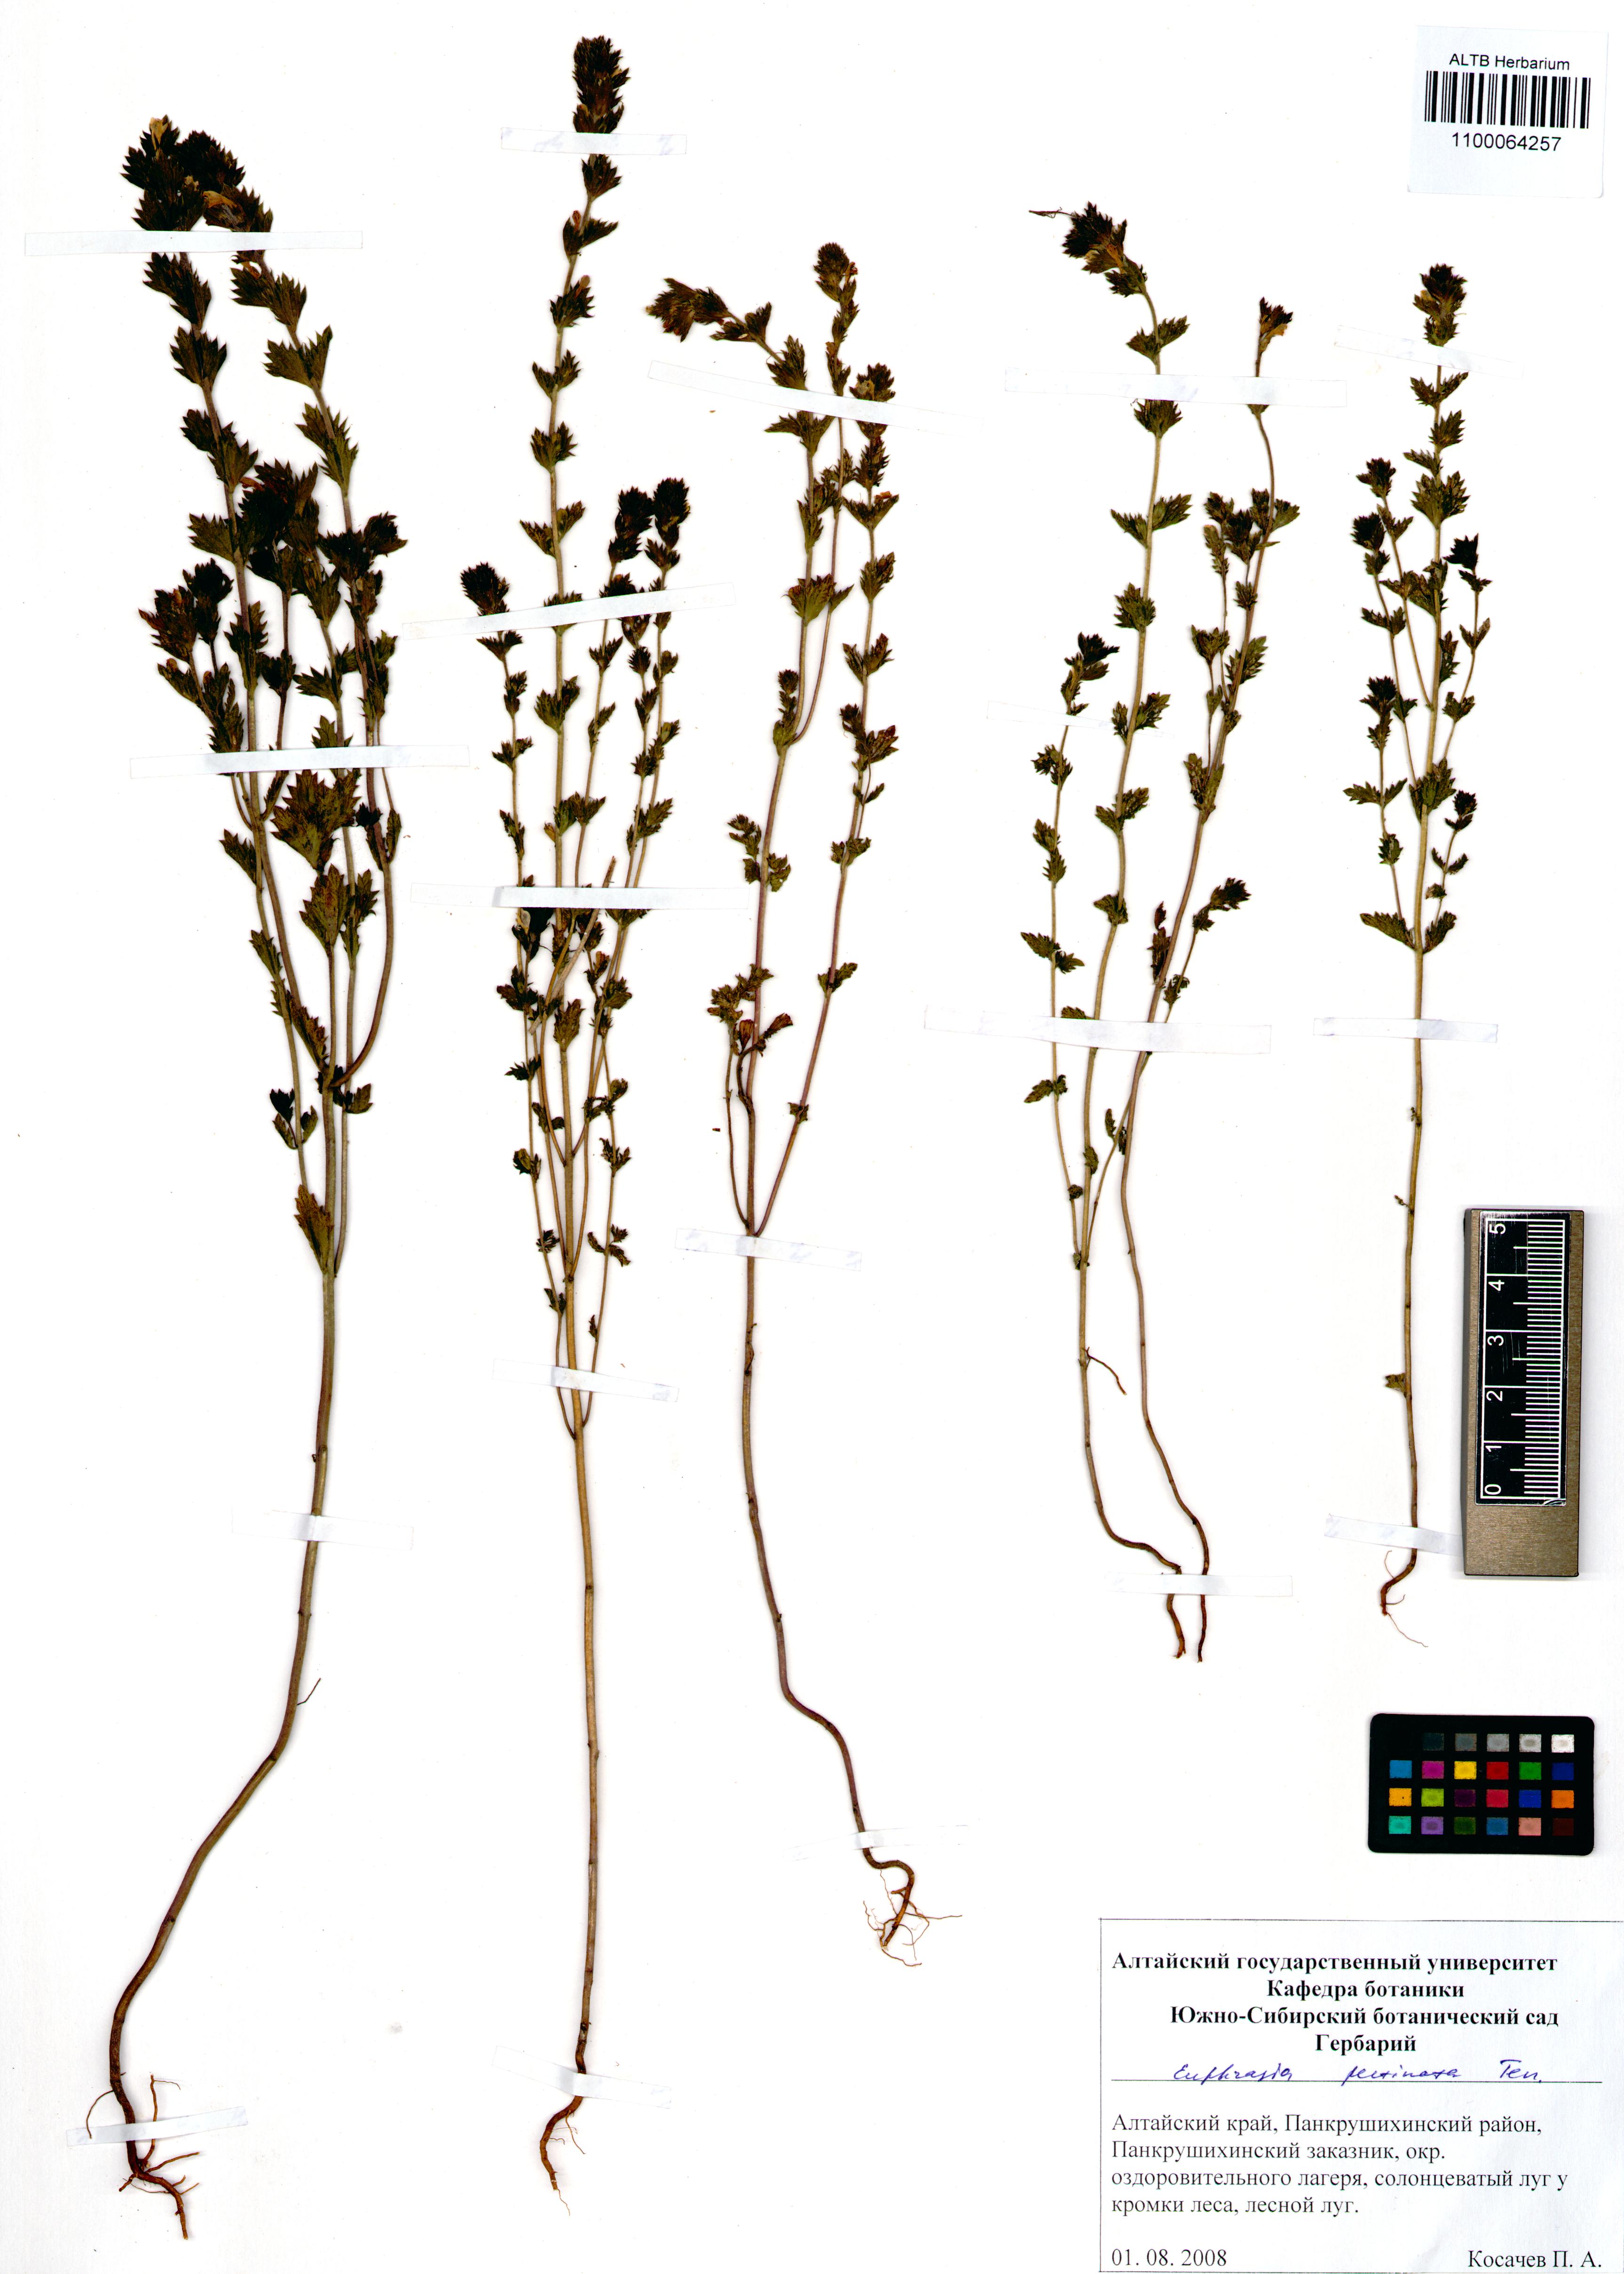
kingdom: Plantae
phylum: Tracheophyta
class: Magnoliopsida
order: Lamiales
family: Orobanchaceae
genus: Euphrasia
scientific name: Euphrasia pectinata
